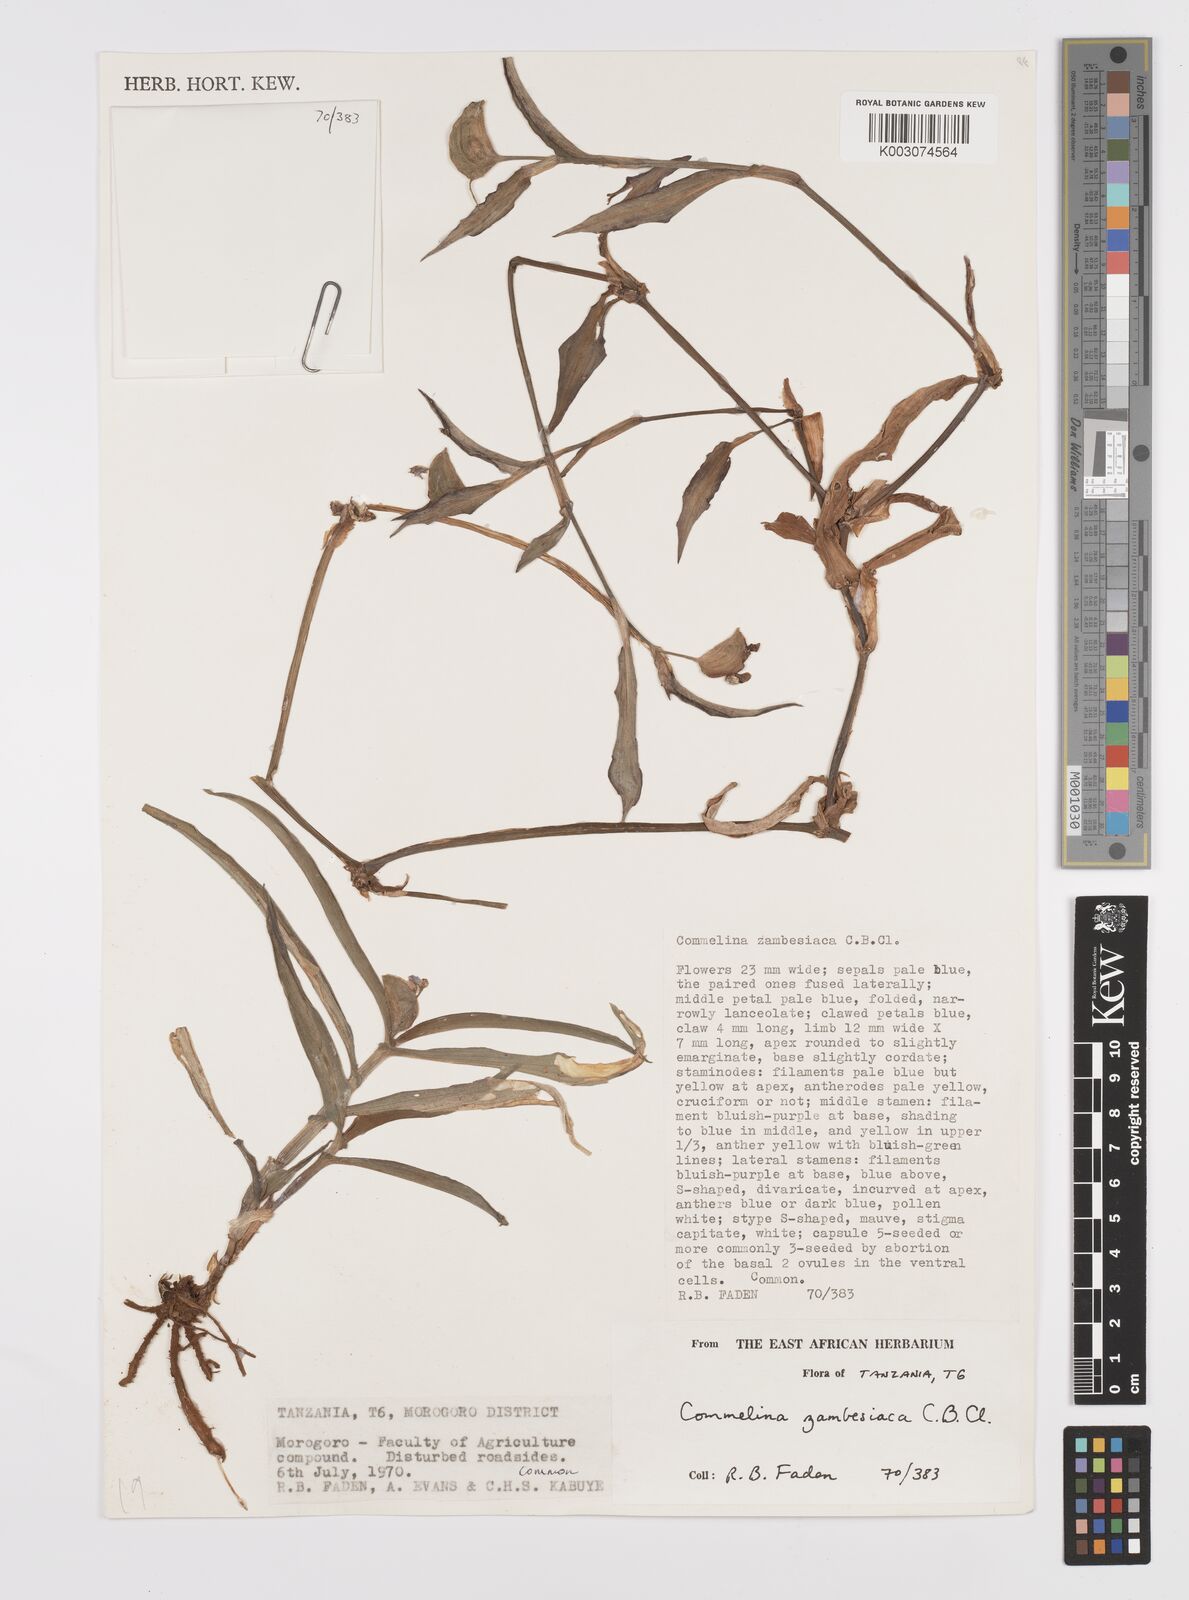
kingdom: Plantae
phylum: Tracheophyta
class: Liliopsida
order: Commelinales
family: Commelinaceae
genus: Commelina
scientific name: Commelina zambesica
